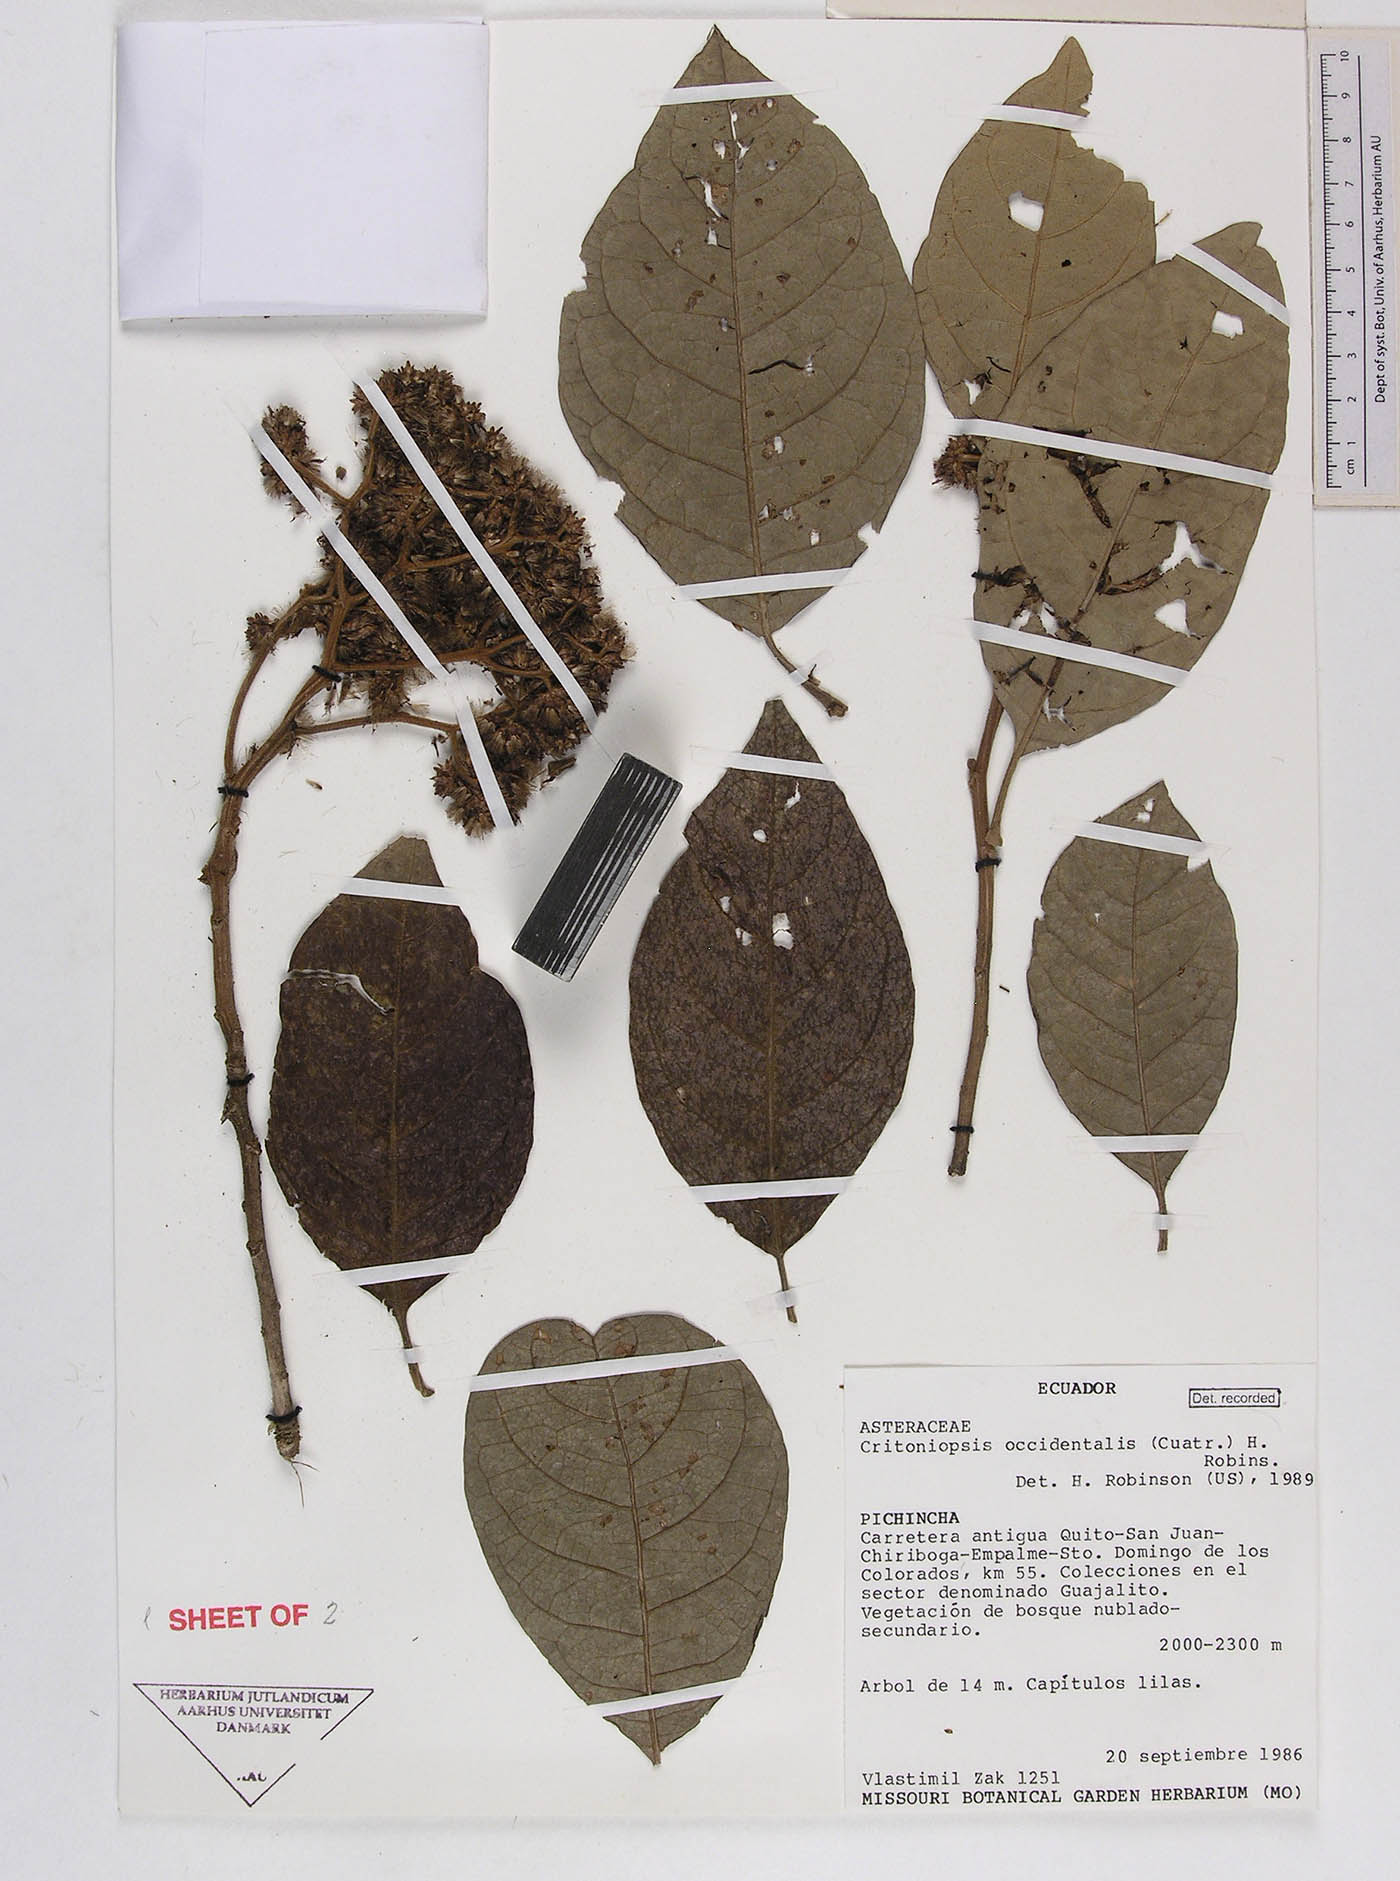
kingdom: Plantae
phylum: Tracheophyta
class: Magnoliopsida
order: Asterales
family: Asteraceae
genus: Critoniopsis
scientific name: Critoniopsis occidentalis
